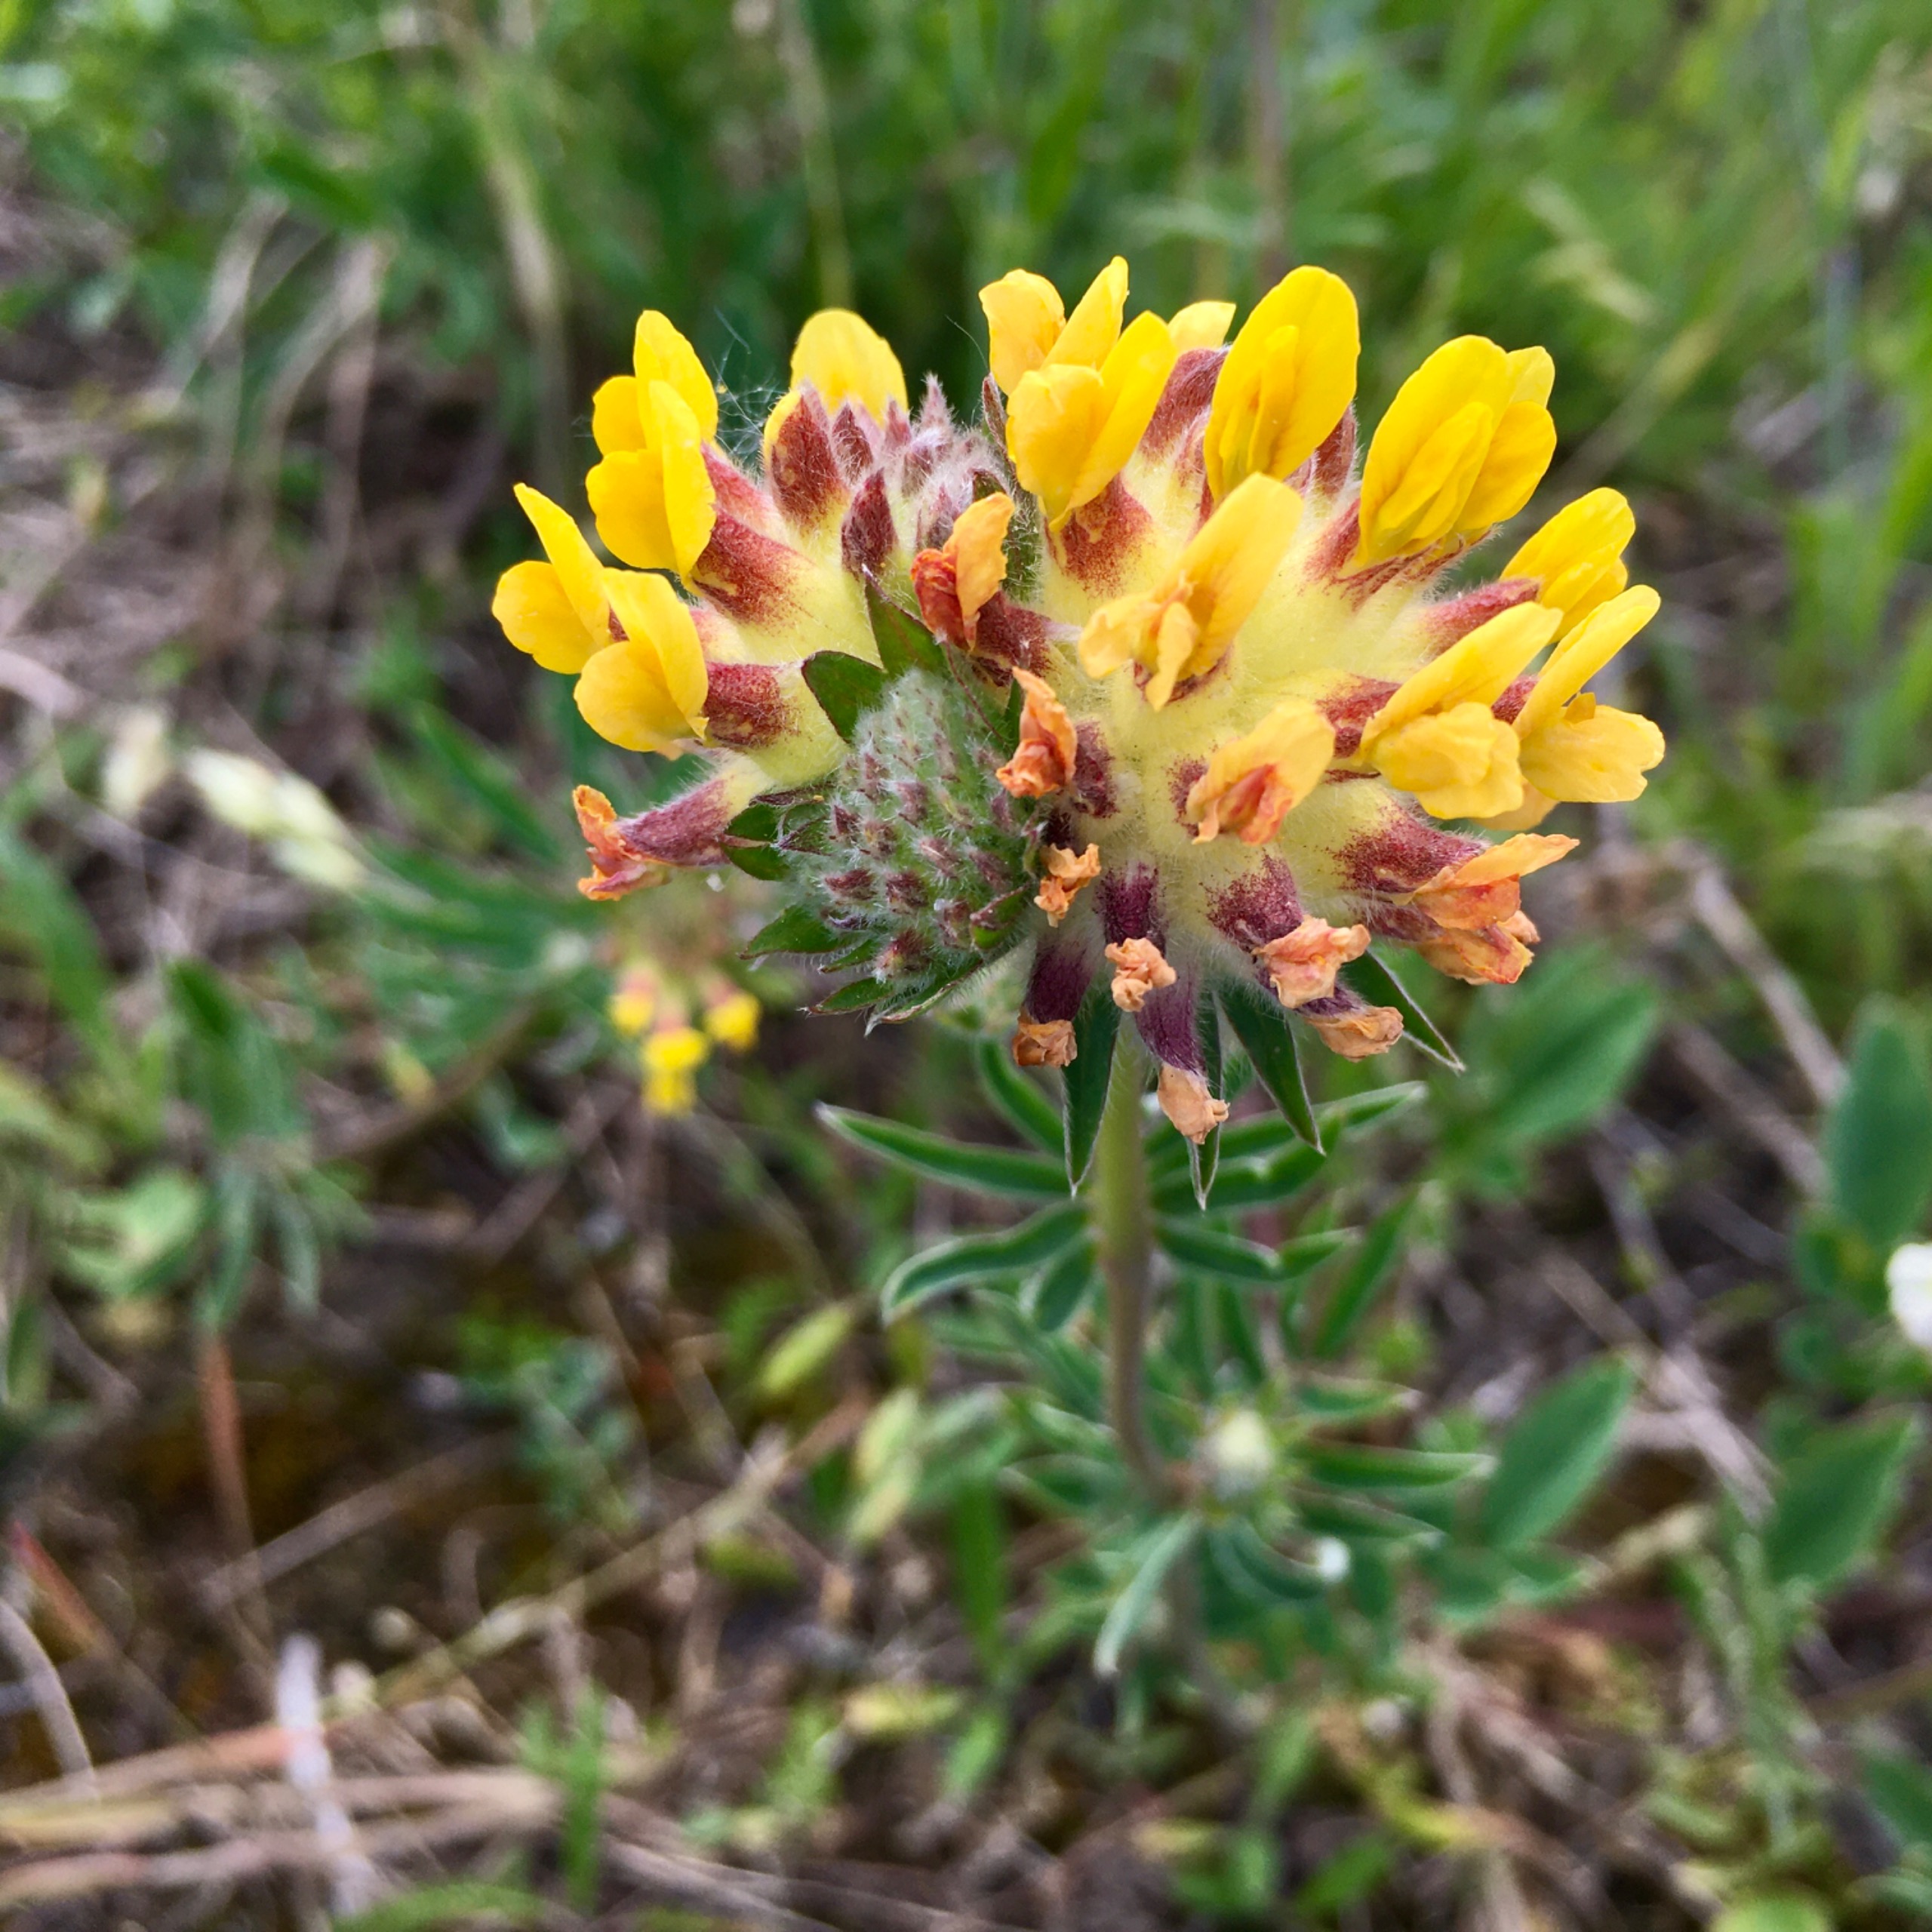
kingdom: Plantae
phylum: Tracheophyta
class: Magnoliopsida
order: Fabales
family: Fabaceae
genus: Anthyllis
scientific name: Anthyllis vulneraria
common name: Rundbælg
